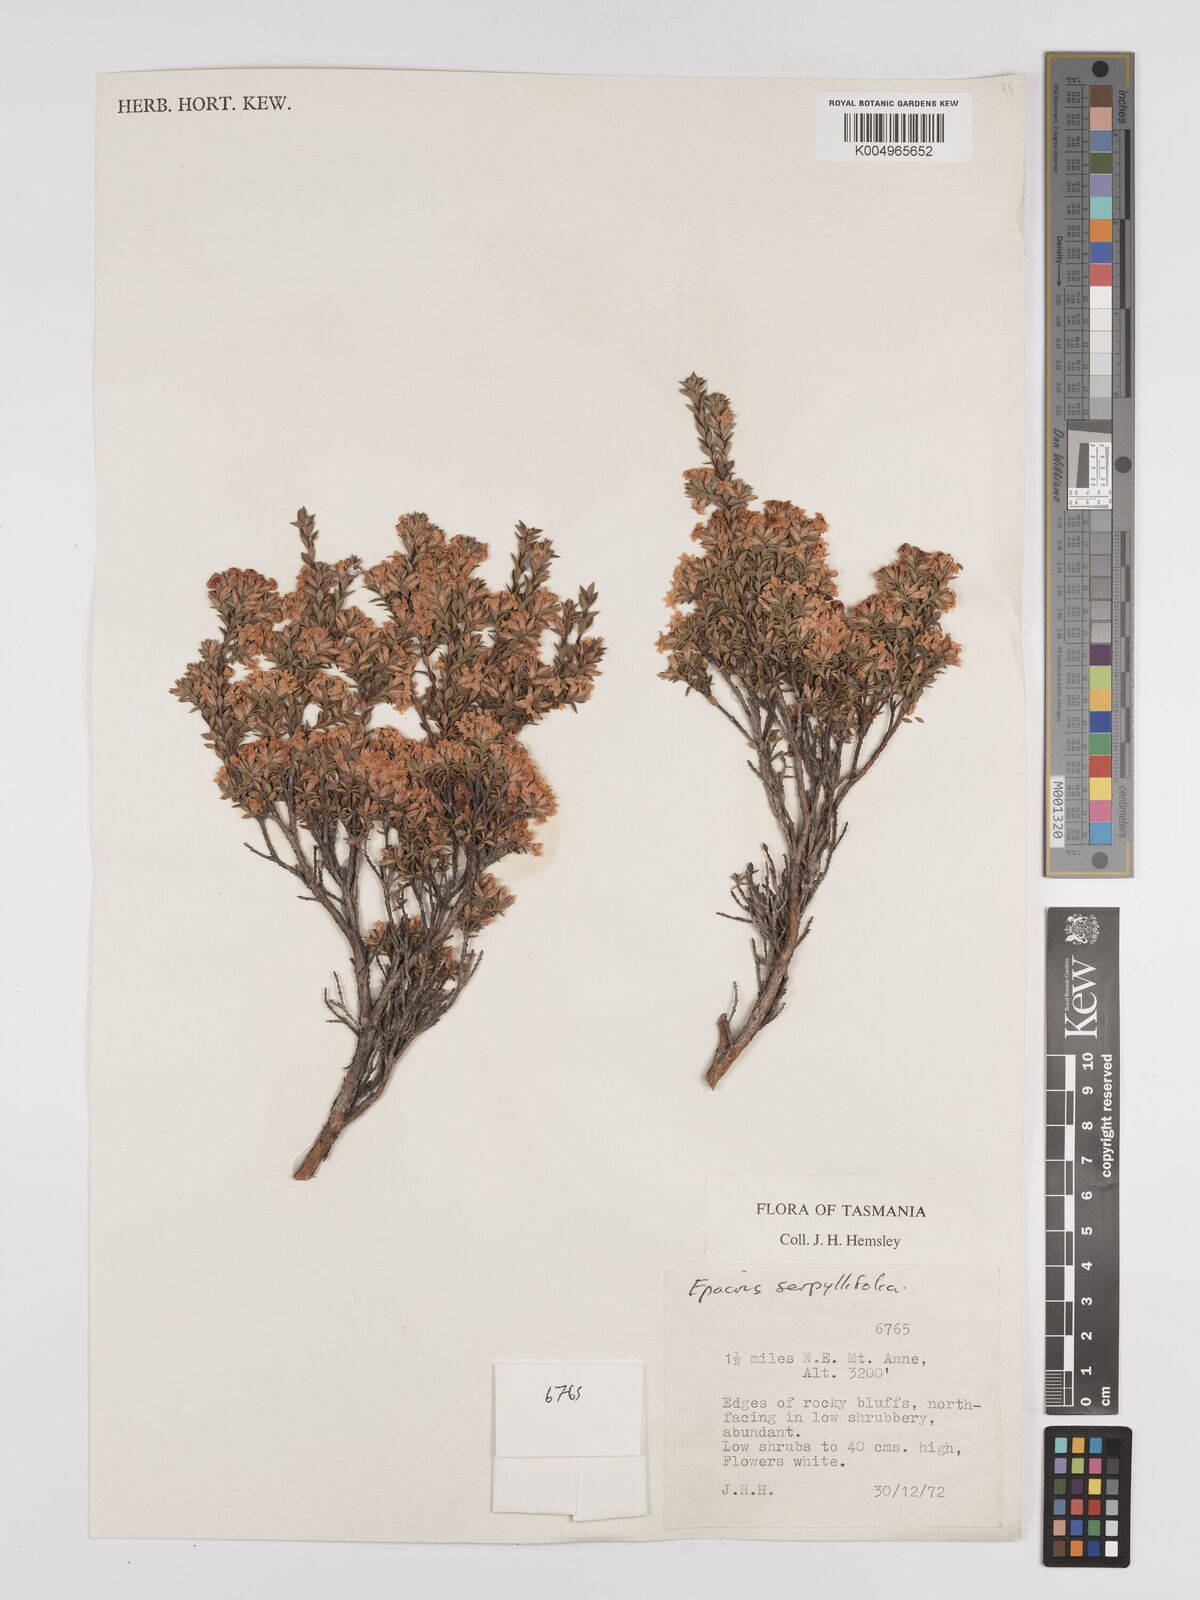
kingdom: Plantae
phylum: Tracheophyta
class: Magnoliopsida
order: Ericales
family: Ericaceae
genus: Epacris
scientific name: Epacris serpyllifolia
